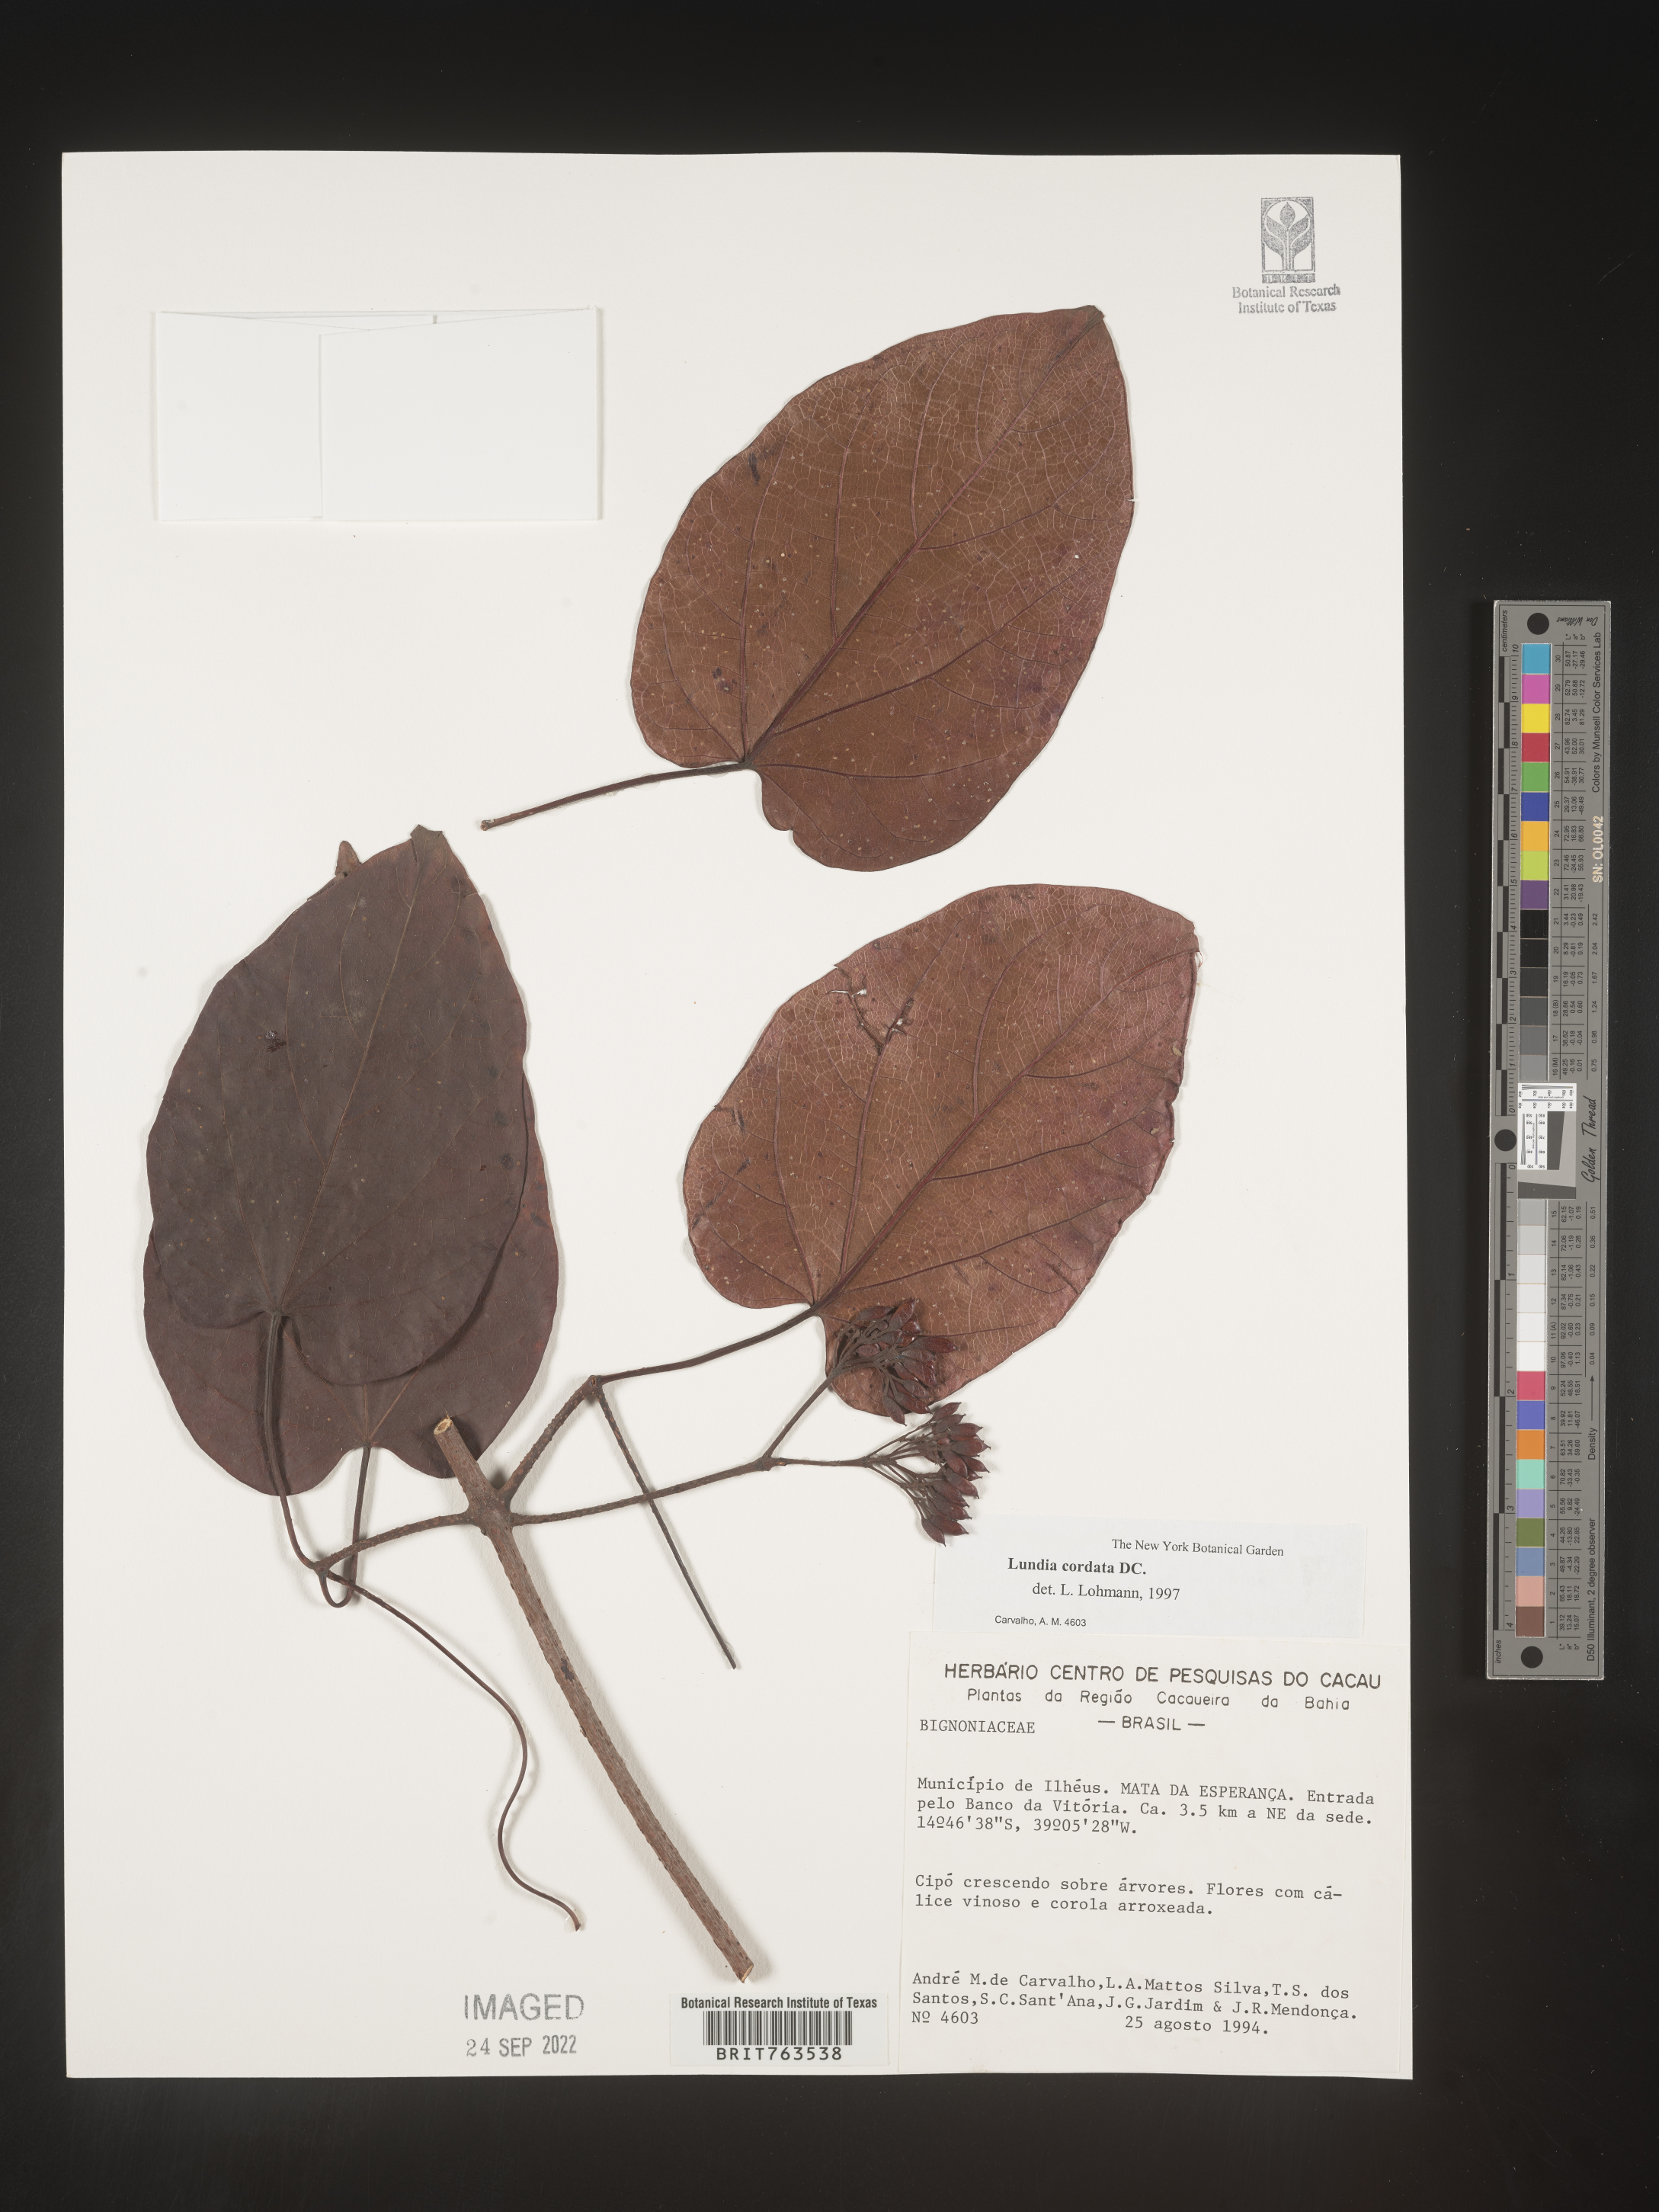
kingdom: Plantae
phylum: Tracheophyta
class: Magnoliopsida
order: Lamiales
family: Bignoniaceae
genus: Lundia
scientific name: Lundia
